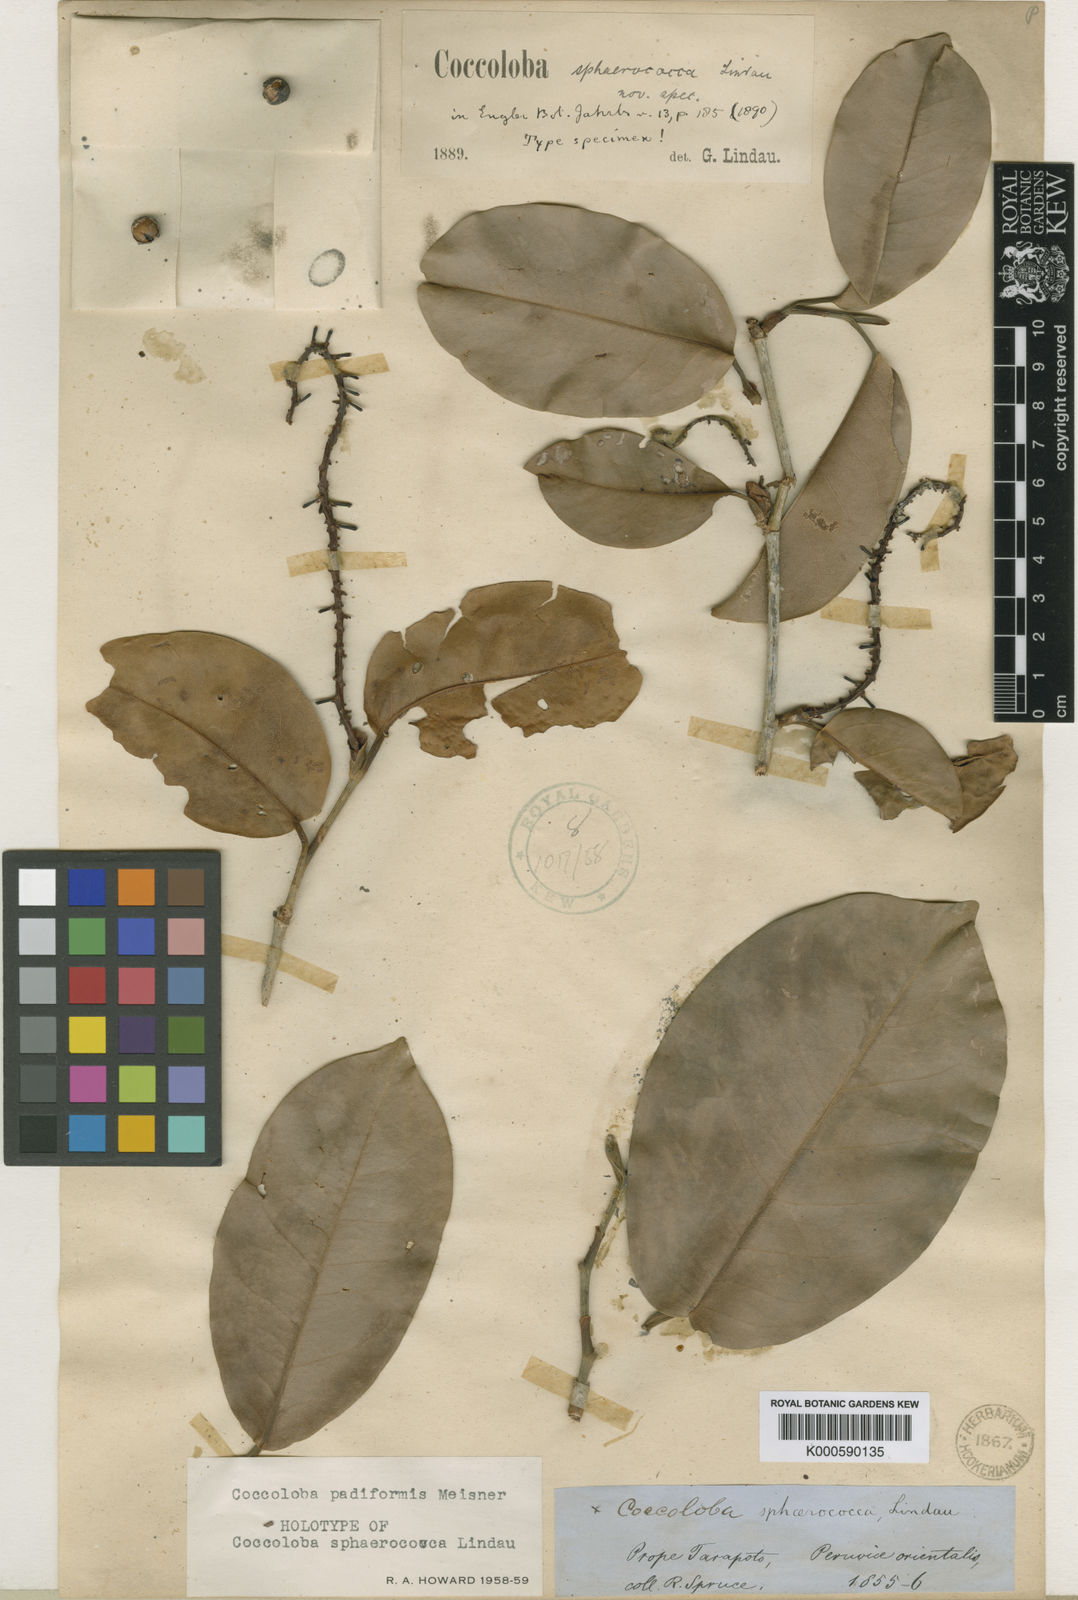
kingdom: Plantae
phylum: Tracheophyta
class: Magnoliopsida
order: Caryophyllales
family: Polygonaceae
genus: Coccoloba
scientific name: Coccoloba padiformis
